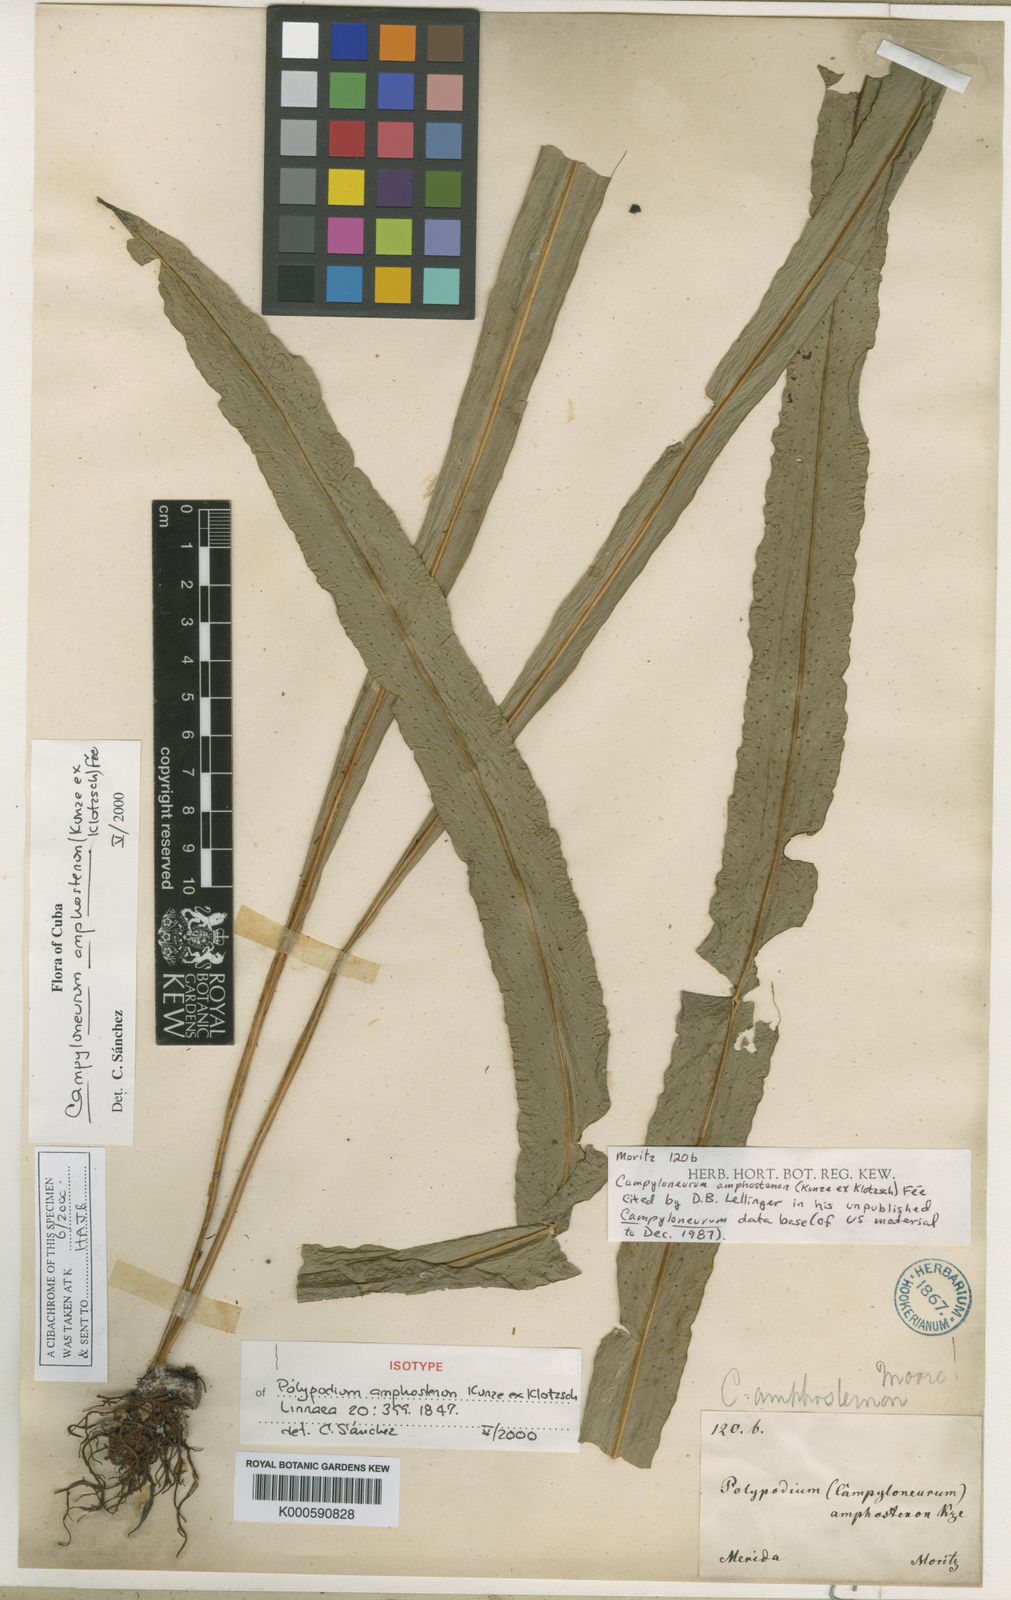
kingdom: Plantae
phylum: Tracheophyta
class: Polypodiopsida
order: Polypodiales
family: Polypodiaceae
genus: Campyloneurum
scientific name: Campyloneurum
